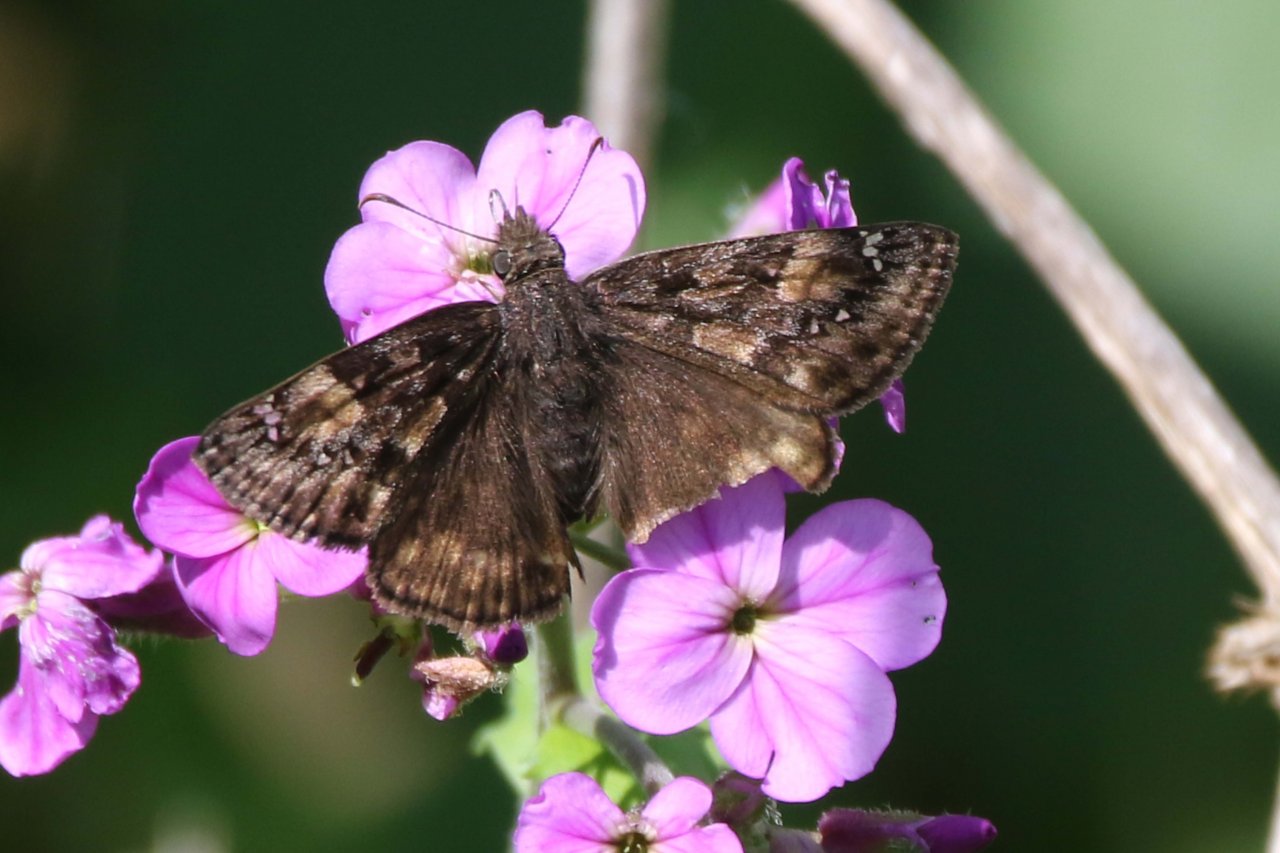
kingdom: Animalia
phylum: Arthropoda
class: Insecta
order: Lepidoptera
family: Hesperiidae
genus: Gesta
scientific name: Gesta
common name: Juvenal's Duskywing
